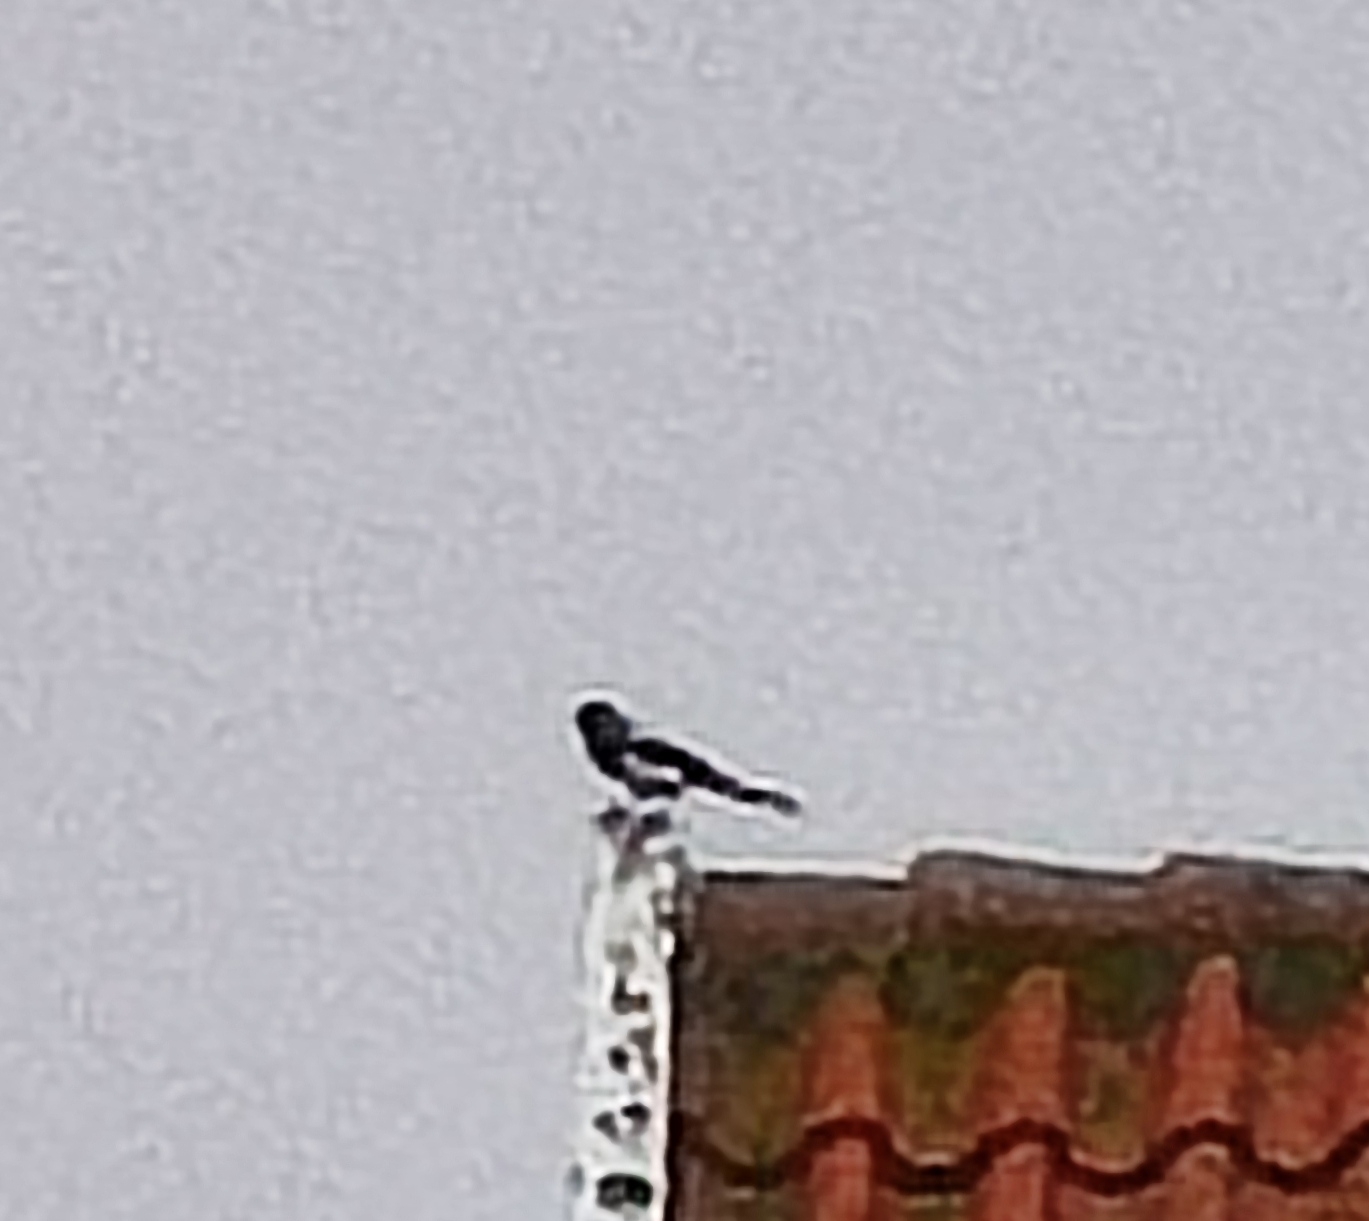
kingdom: Animalia
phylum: Chordata
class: Aves
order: Passeriformes
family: Corvidae
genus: Pica
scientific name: Pica pica
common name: Husskade
